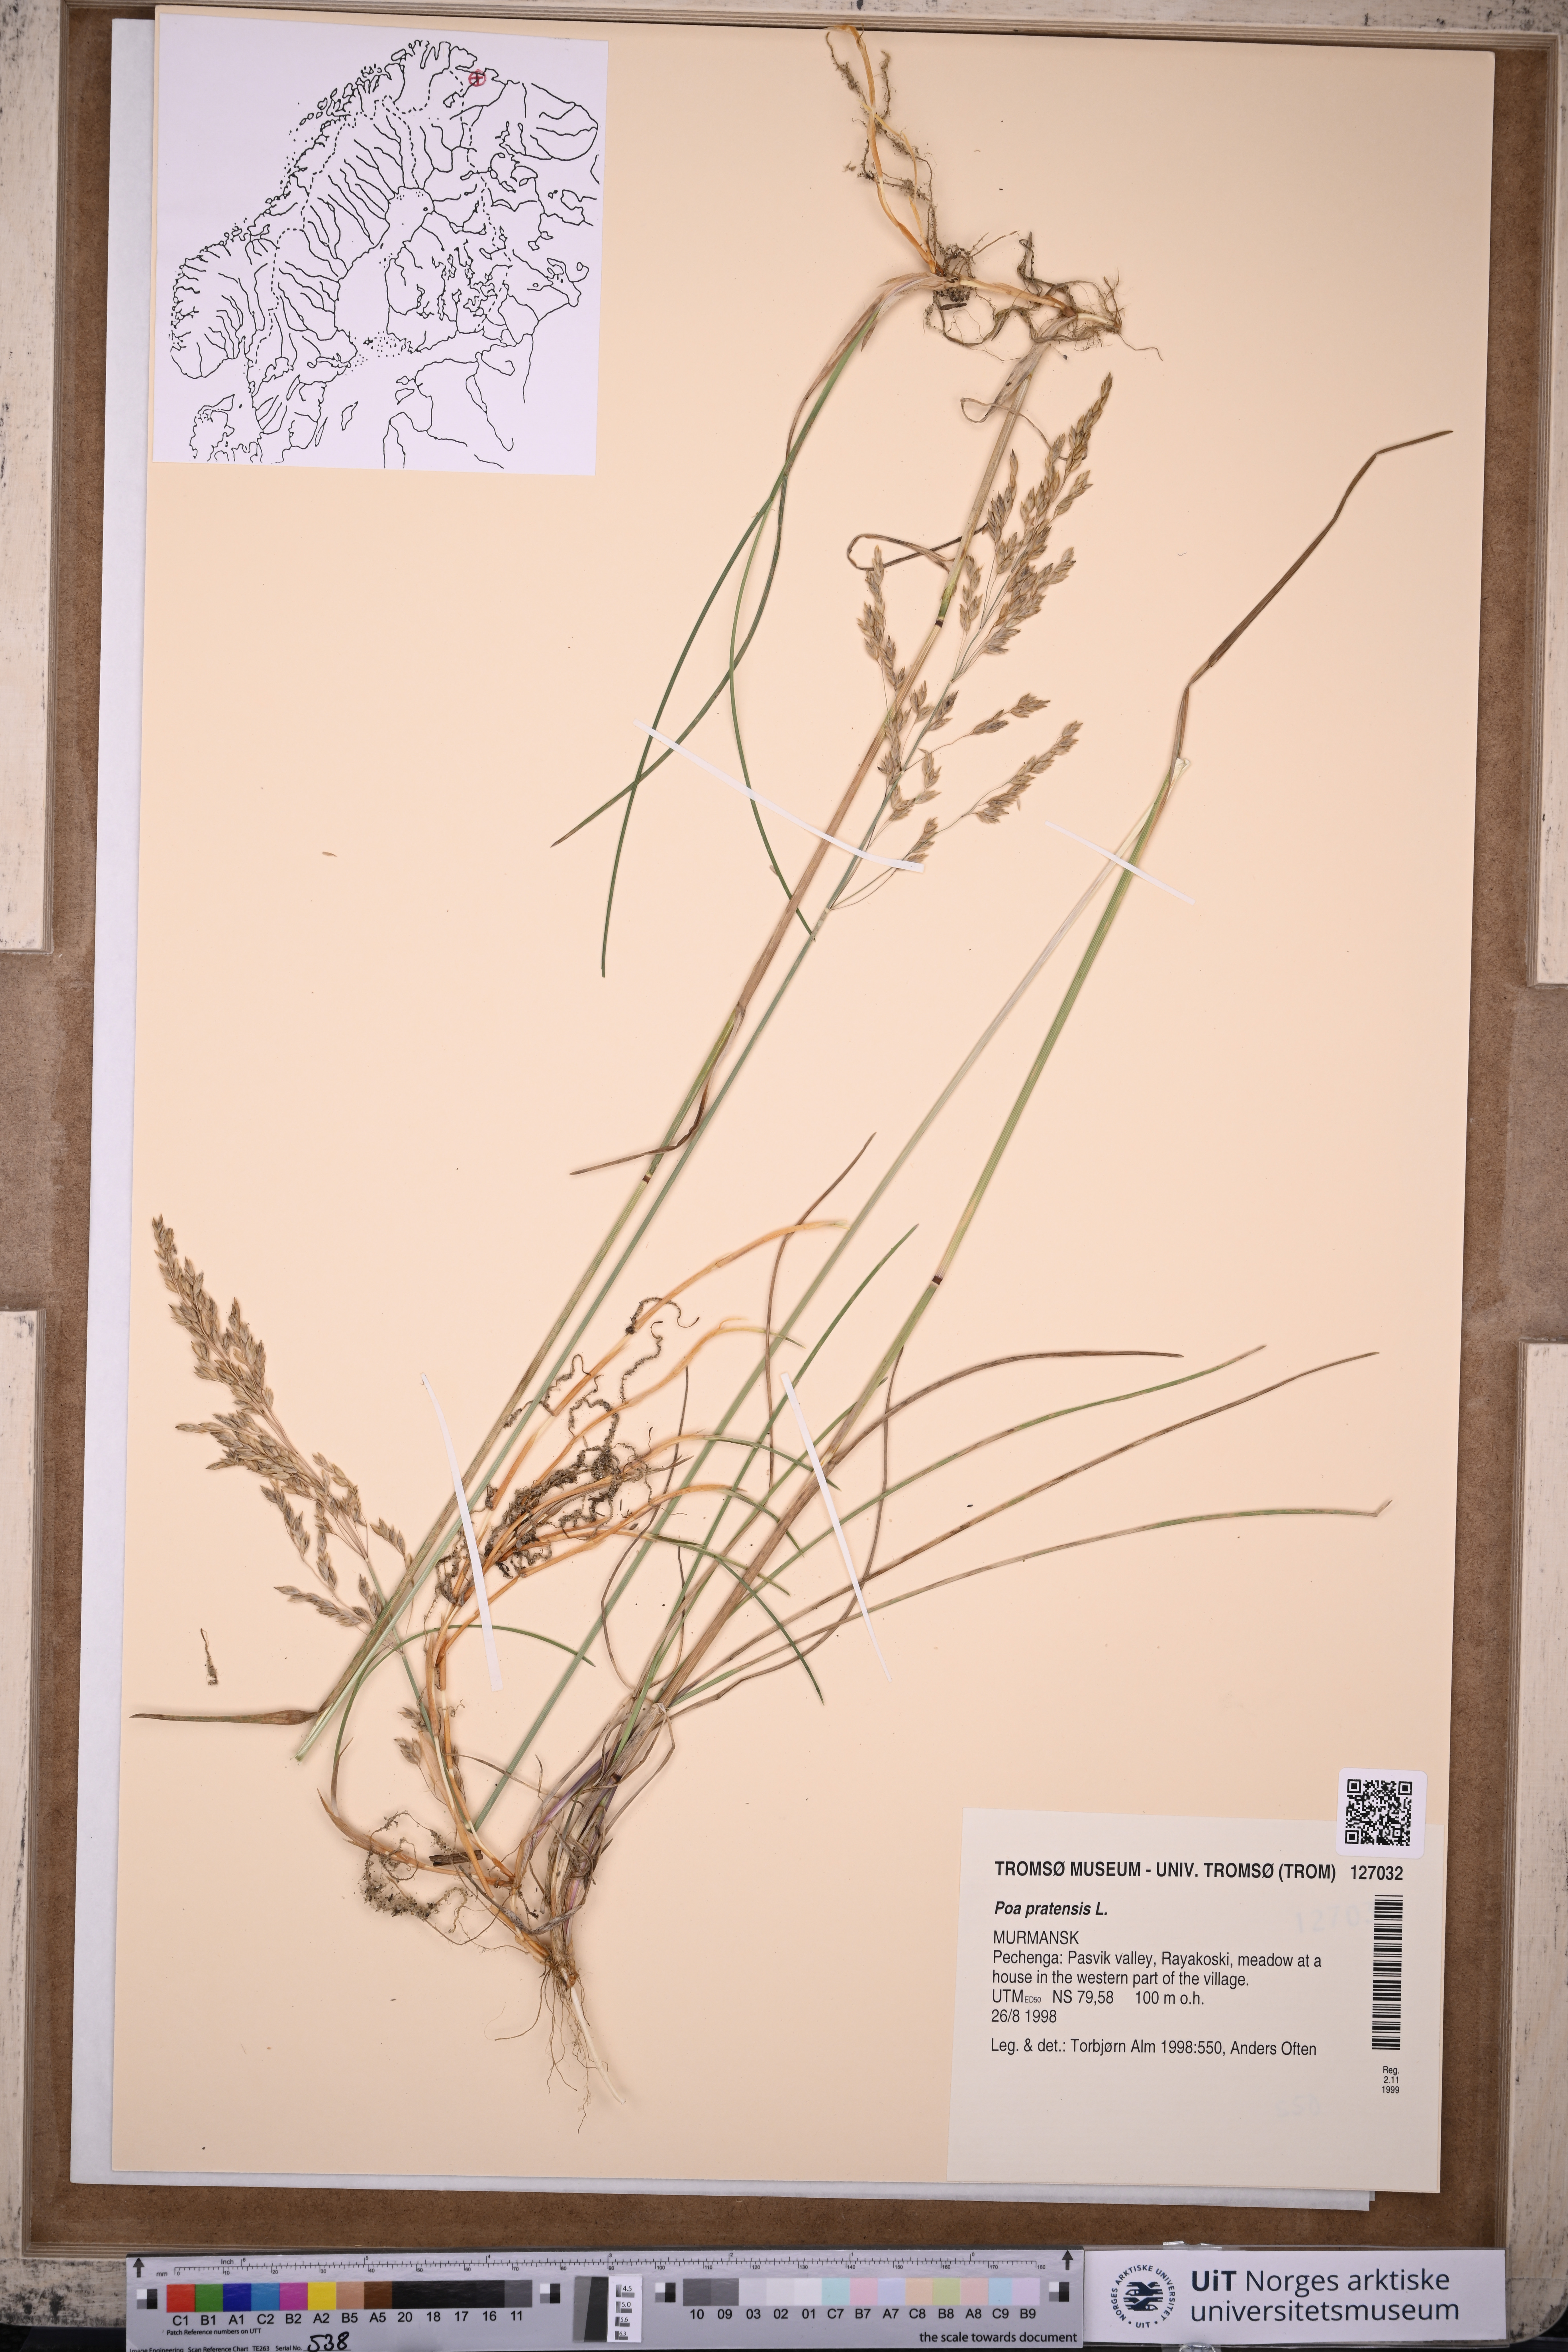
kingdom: Plantae
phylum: Tracheophyta
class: Liliopsida
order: Poales
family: Poaceae
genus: Poa
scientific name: Poa pratensis
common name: Kentucky bluegrass
